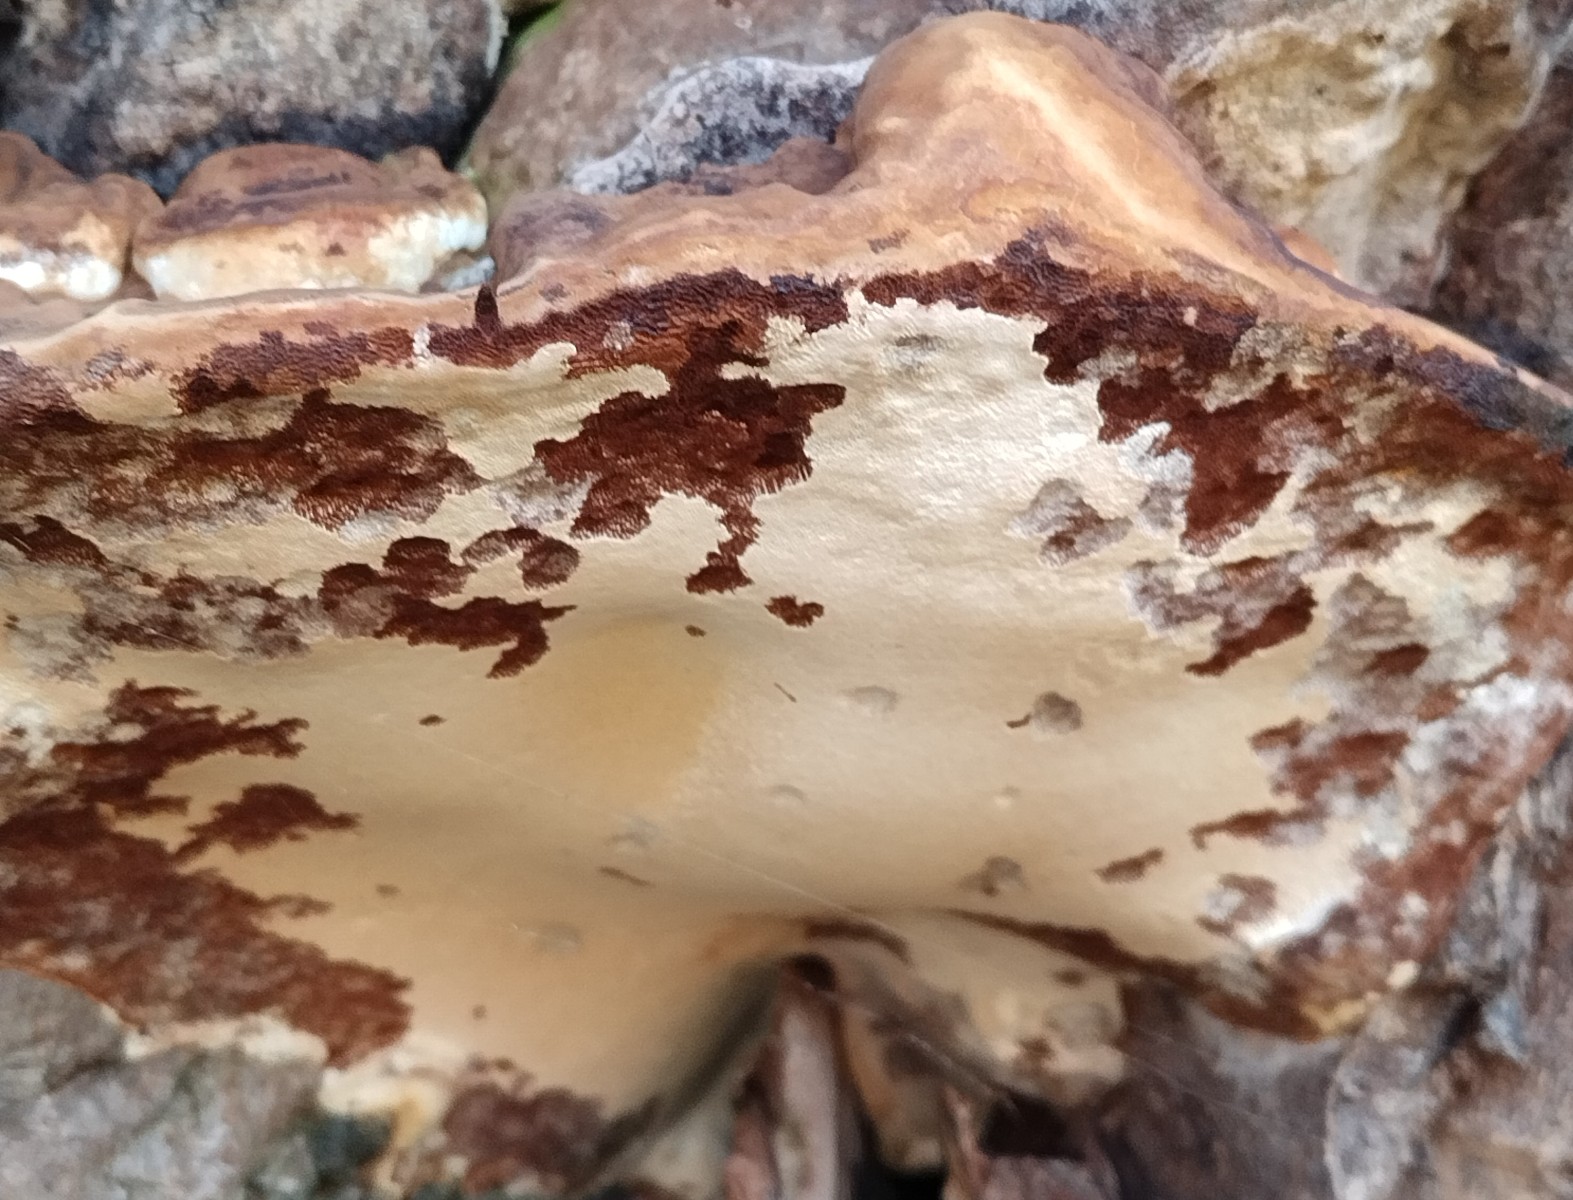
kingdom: Fungi
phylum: Basidiomycota
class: Agaricomycetes
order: Polyporales
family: Polyporaceae
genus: Ganoderma
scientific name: Ganoderma adspersum
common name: grov lakporesvamp
